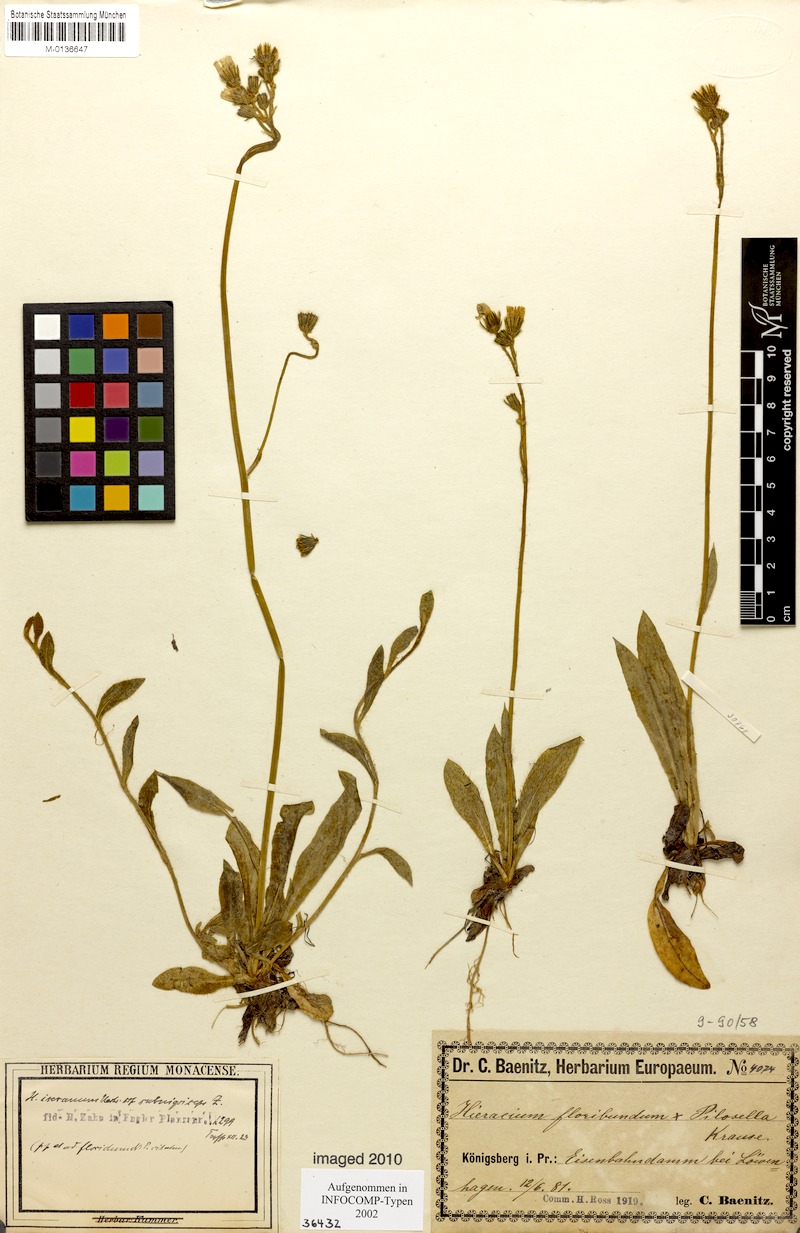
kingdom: Plantae
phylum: Tracheophyta
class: Magnoliopsida
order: Asterales
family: Asteraceae
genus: Pilosella
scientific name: Pilosella iserana
